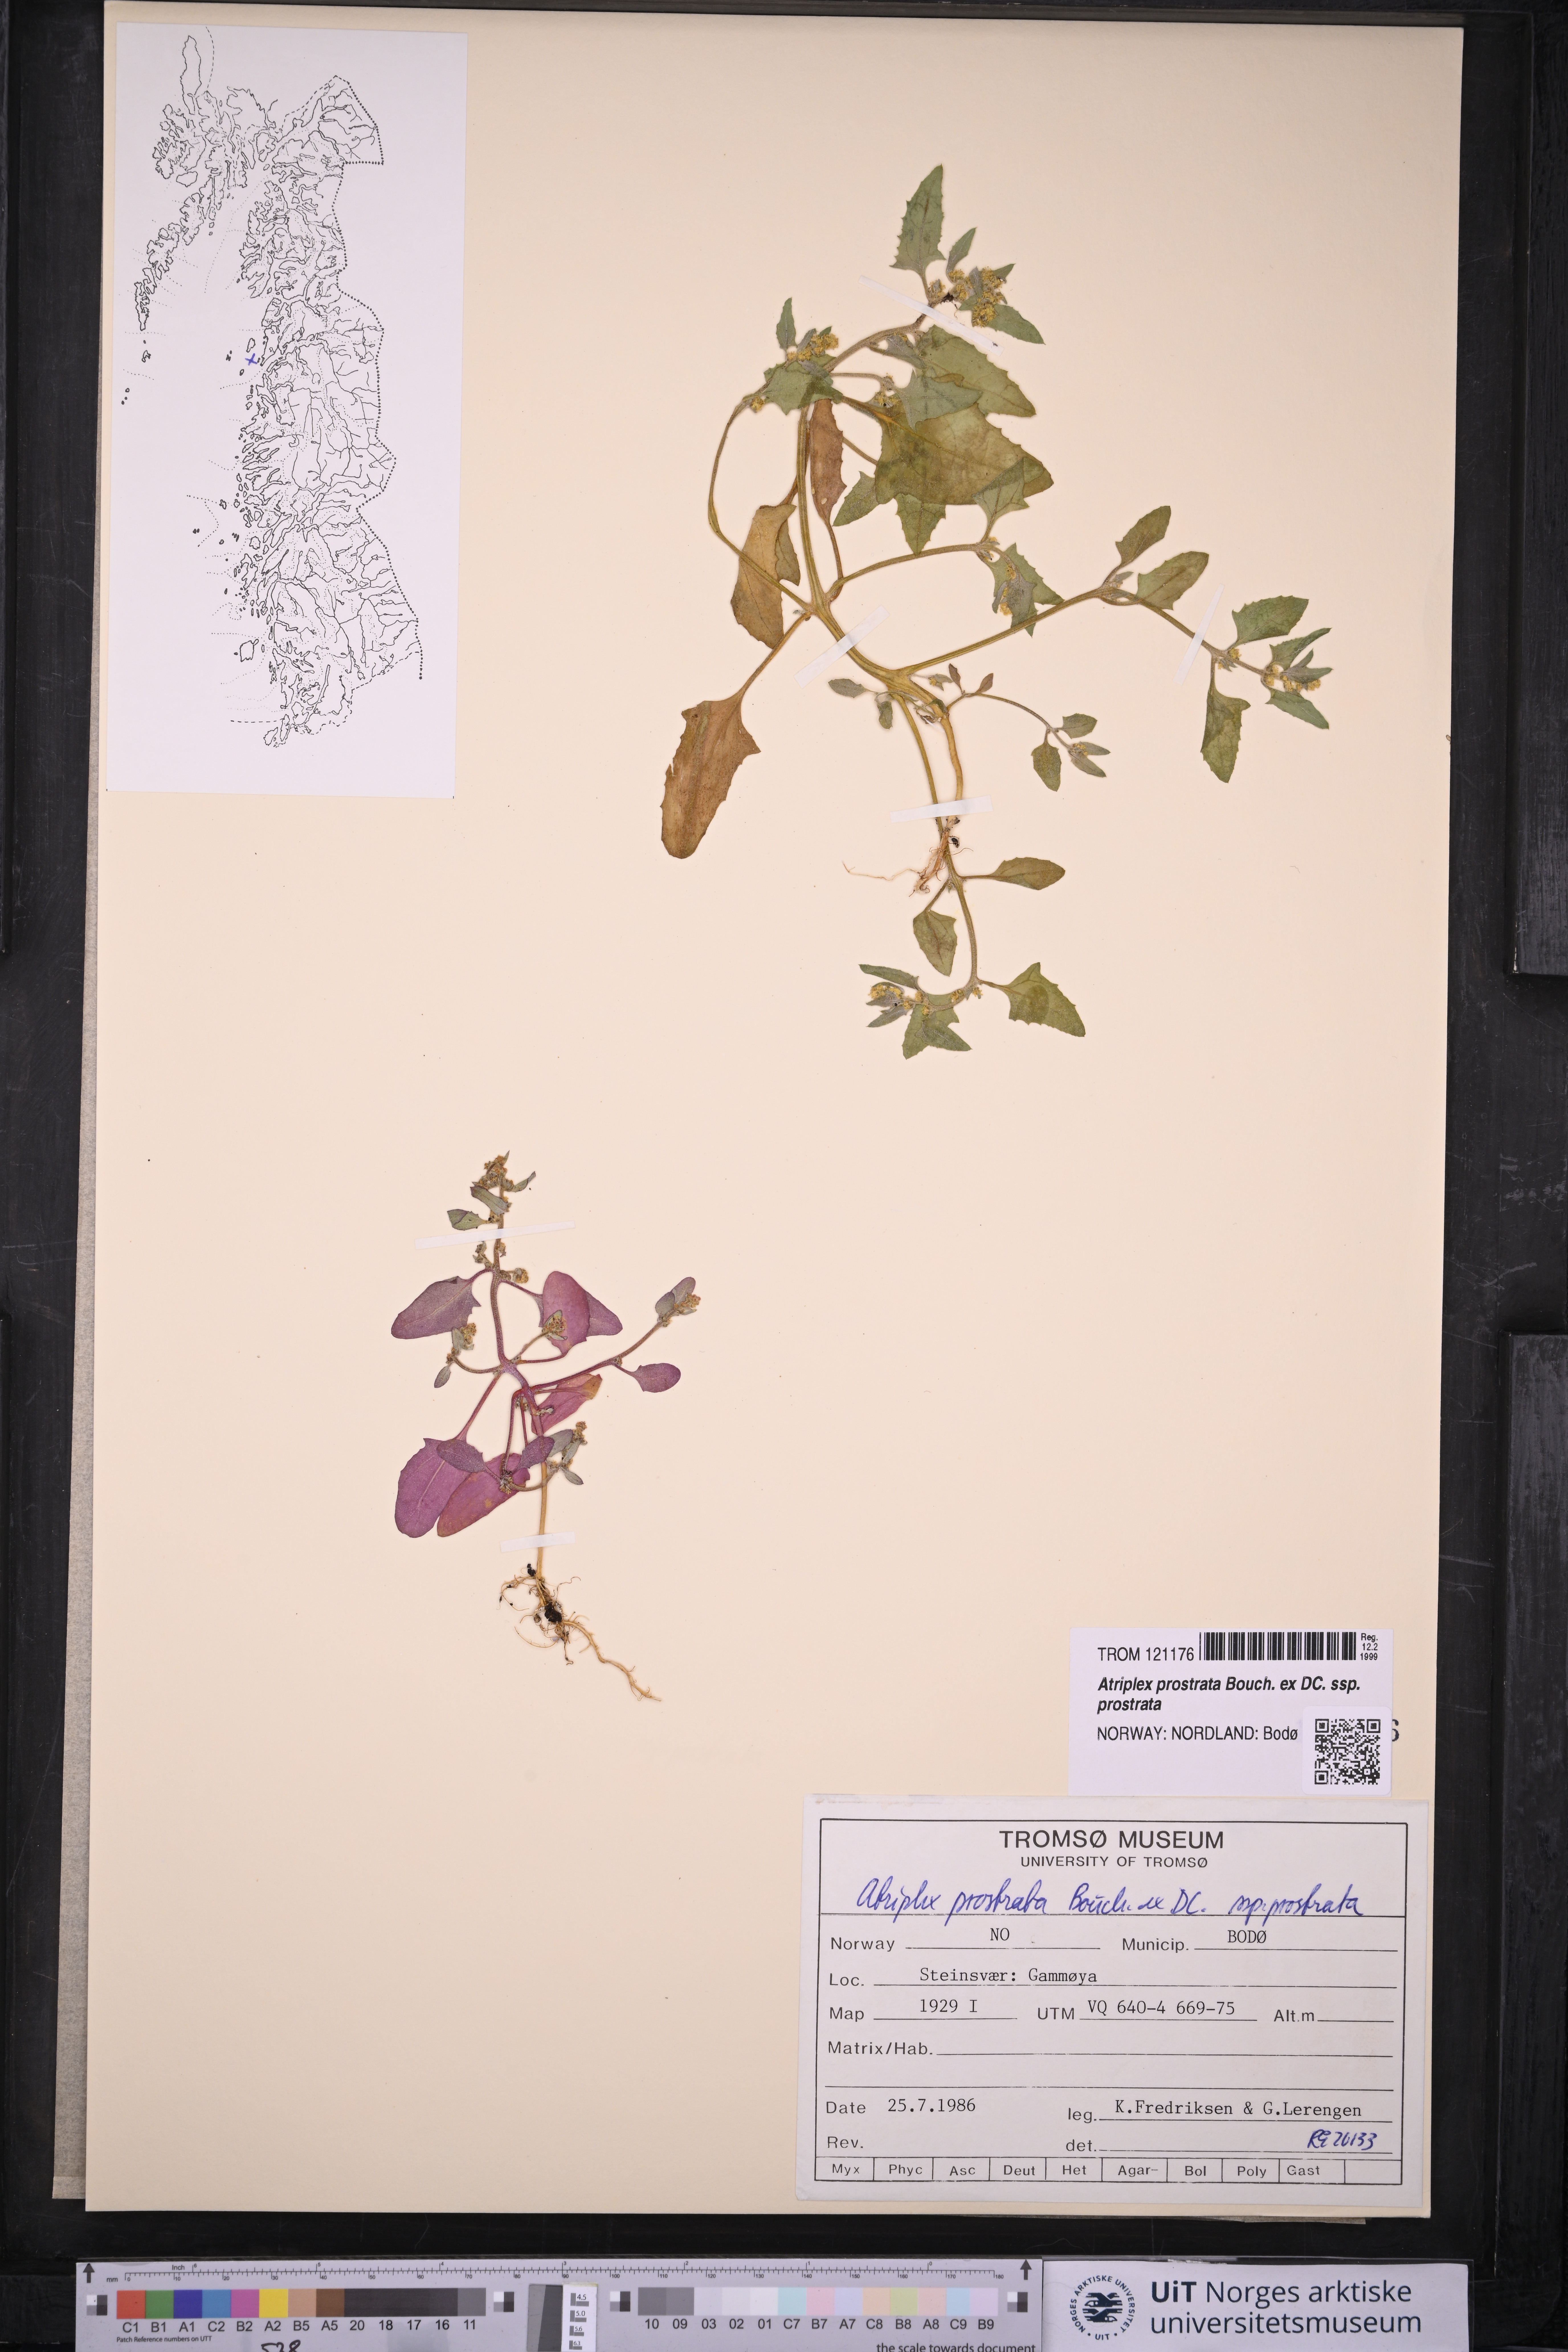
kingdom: Plantae
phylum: Tracheophyta
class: Magnoliopsida
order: Caryophyllales
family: Amaranthaceae
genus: Atriplex
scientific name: Atriplex prostrata
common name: Spear-leaved orache
